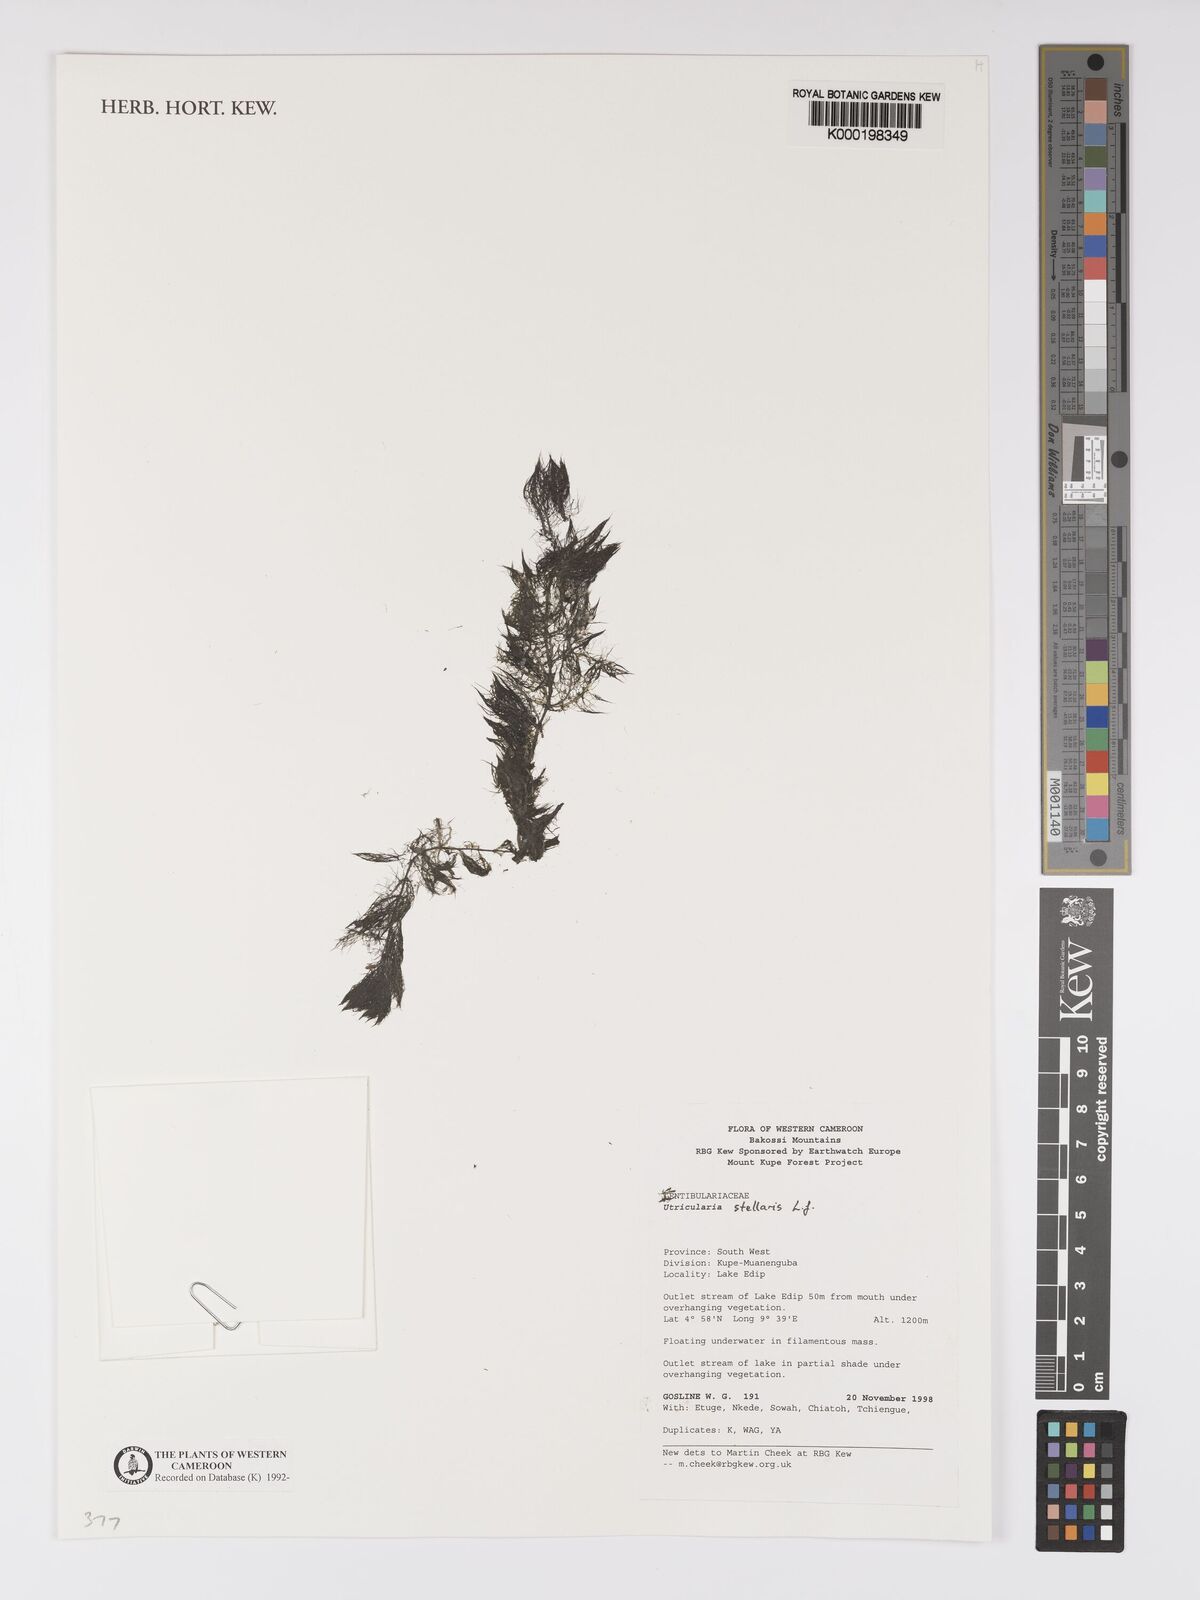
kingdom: Plantae
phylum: Tracheophyta
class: Magnoliopsida
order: Lamiales
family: Lentibulariaceae
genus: Utricularia
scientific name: Utricularia stellaris
